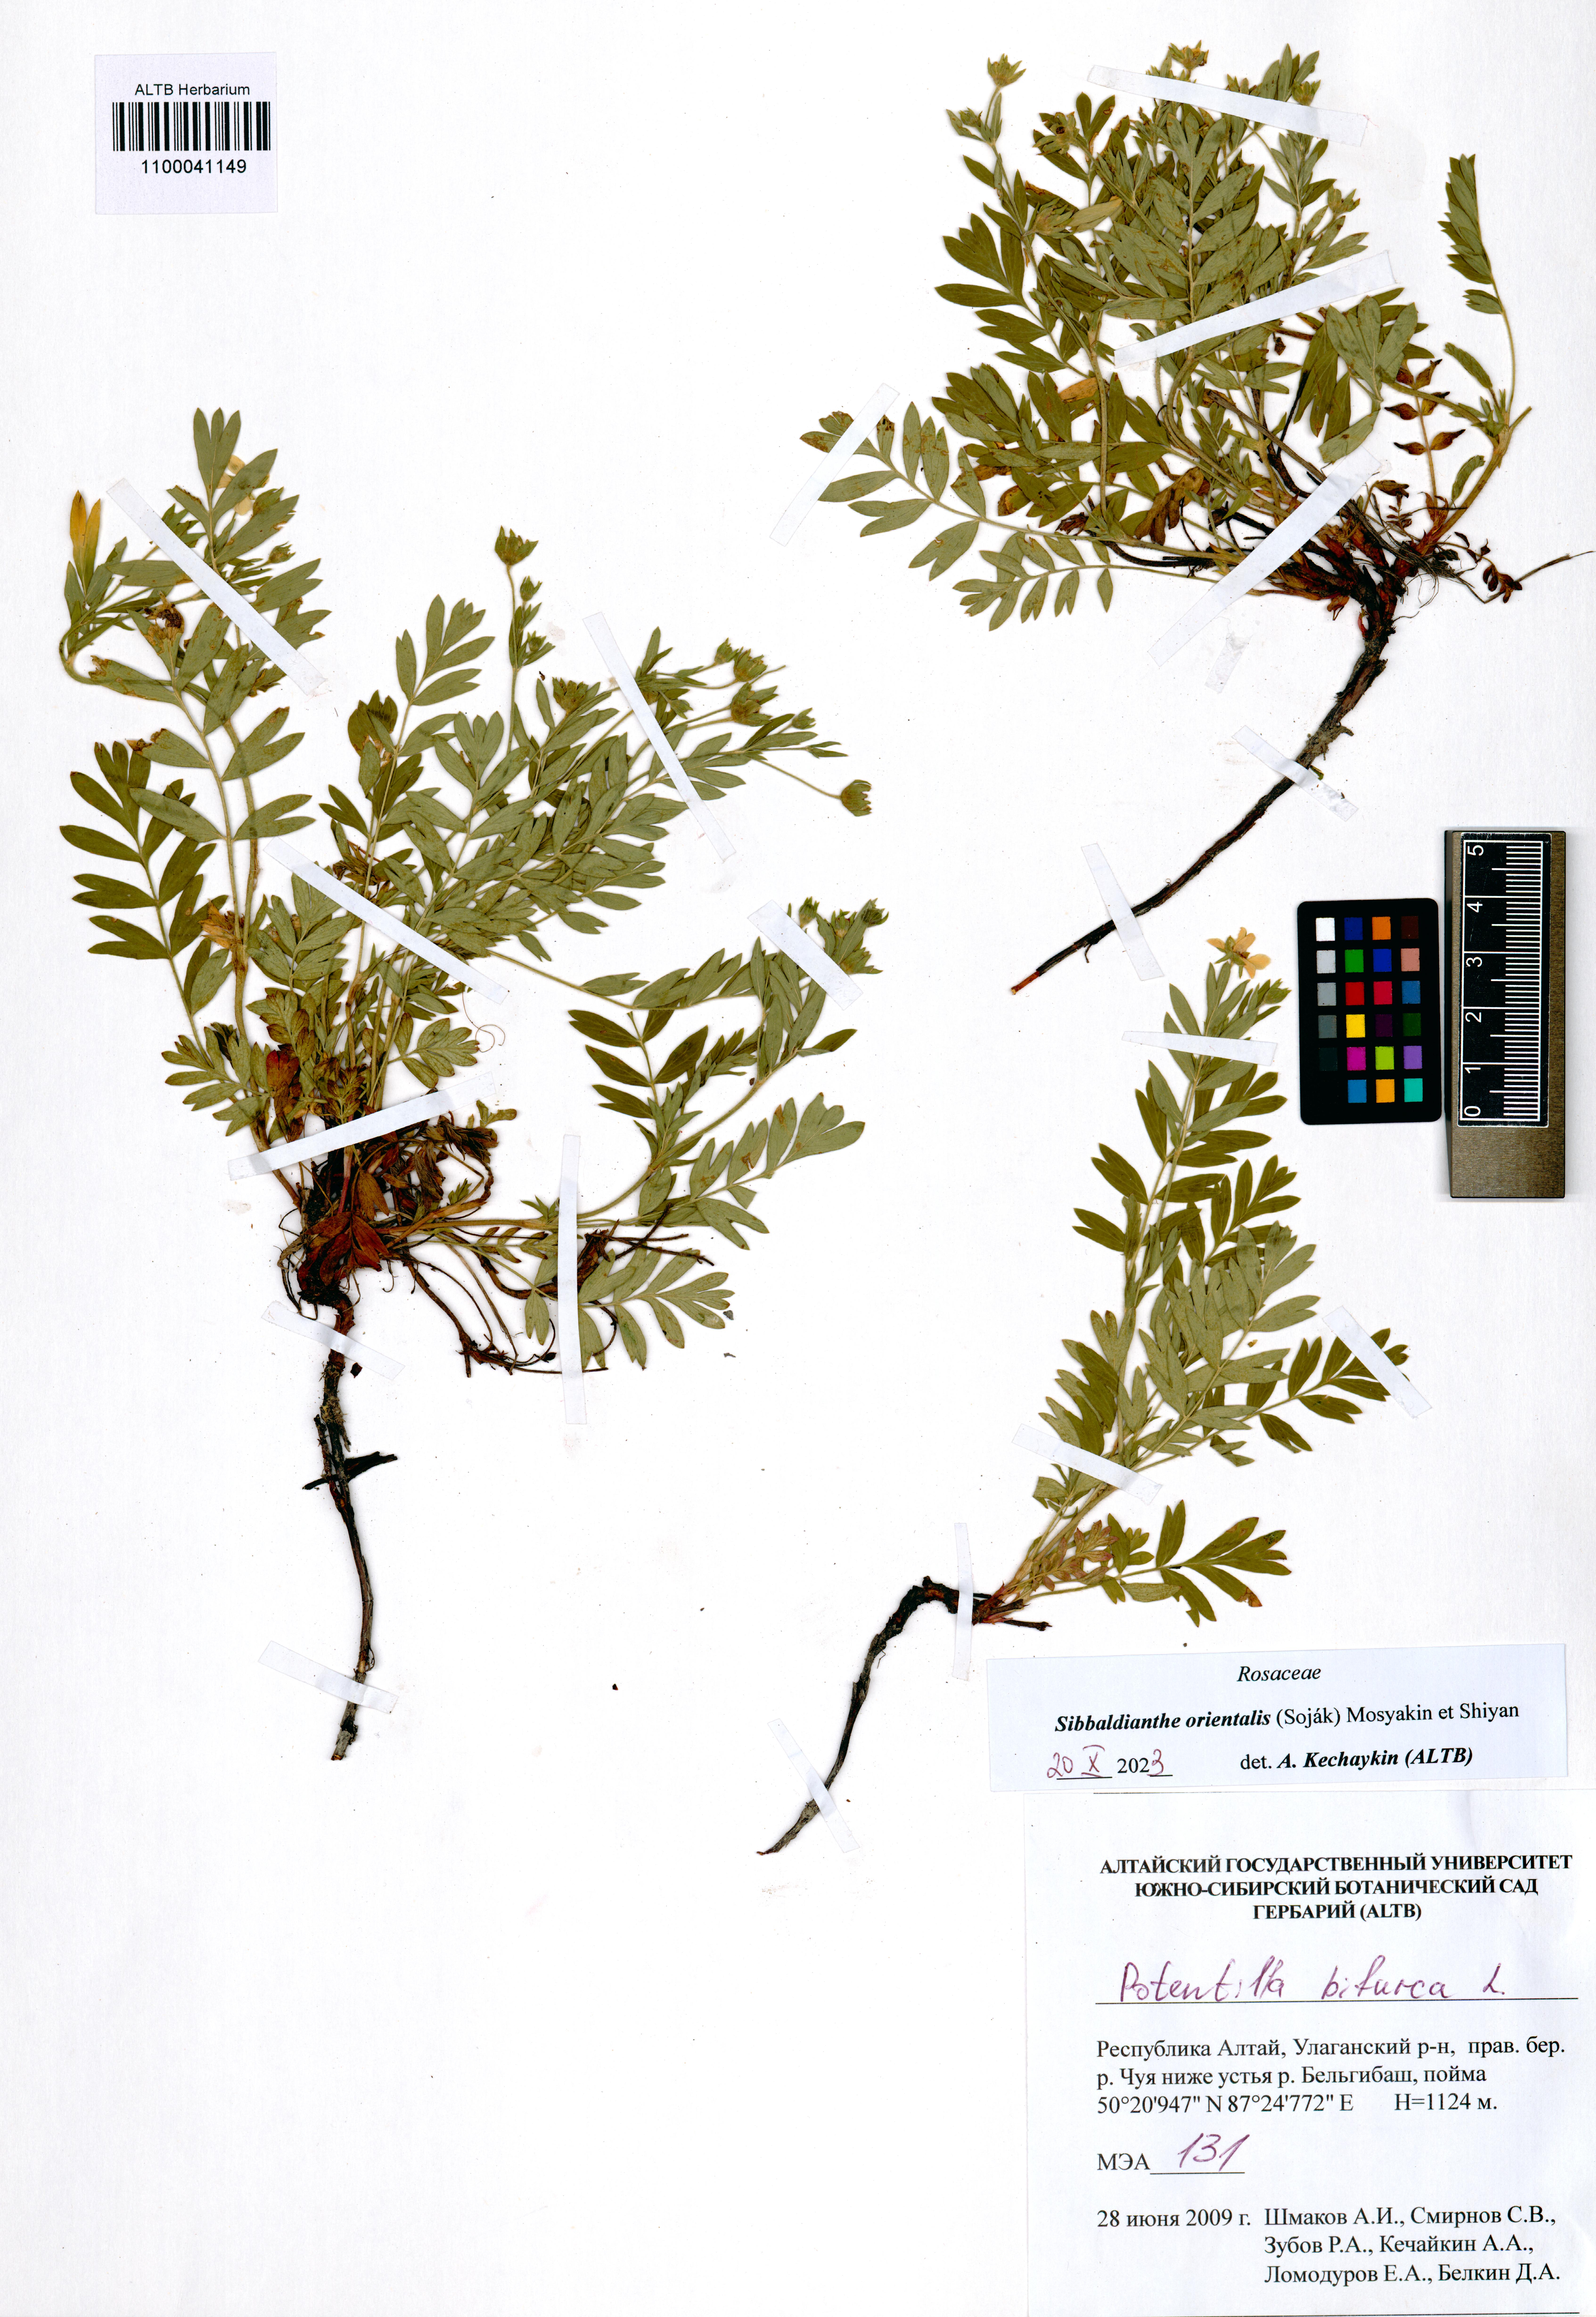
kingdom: Plantae
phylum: Tracheophyta
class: Magnoliopsida
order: Rosales
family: Rosaceae
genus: Sibbaldianthe
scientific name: Sibbaldianthe orientalis
